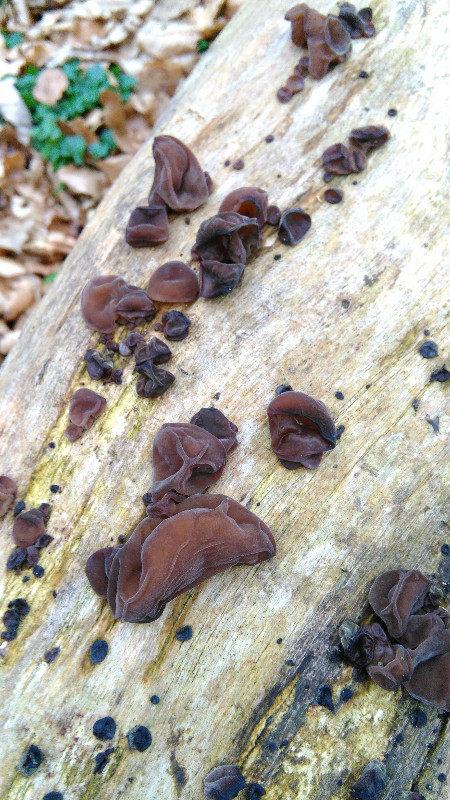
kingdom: Fungi
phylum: Basidiomycota
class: Agaricomycetes
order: Auriculariales
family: Auriculariaceae
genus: Auricularia
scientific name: Auricularia auricula-judae
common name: almindelig judasøre
